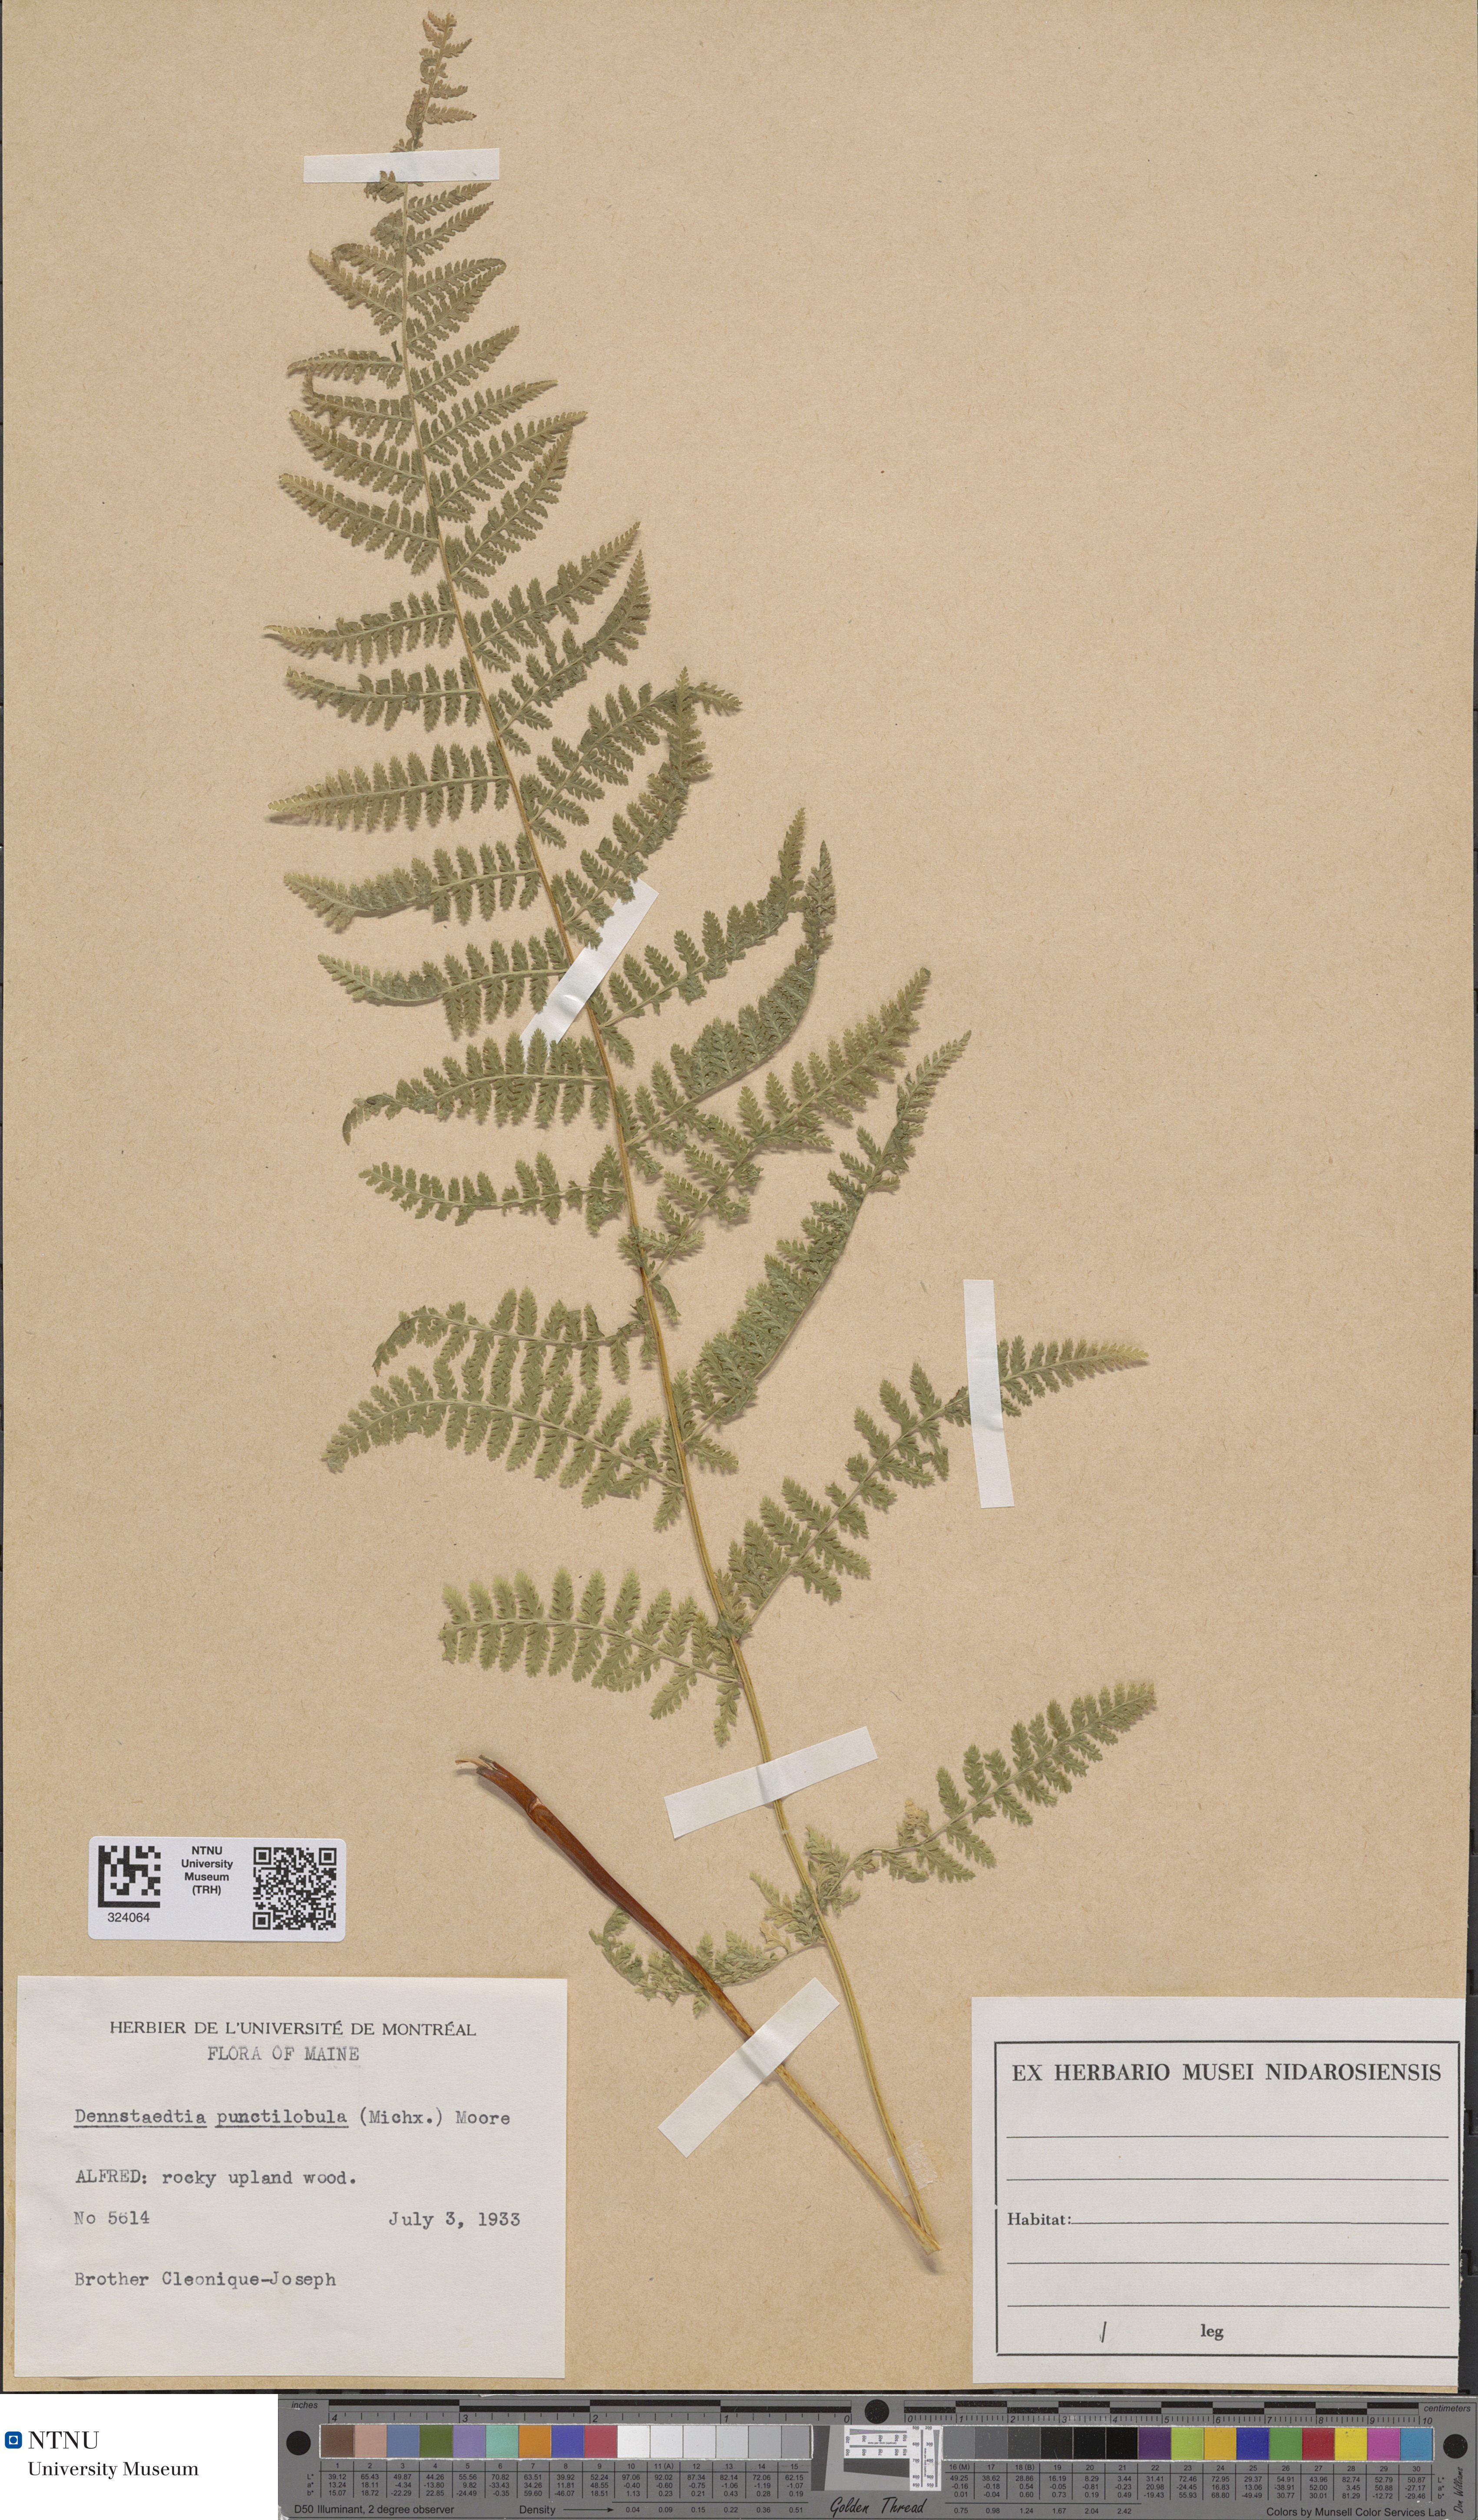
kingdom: Plantae
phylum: Tracheophyta
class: Polypodiopsida
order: Polypodiales
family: Dennstaedtiaceae
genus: Sitobolium
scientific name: Sitobolium punctilobum
